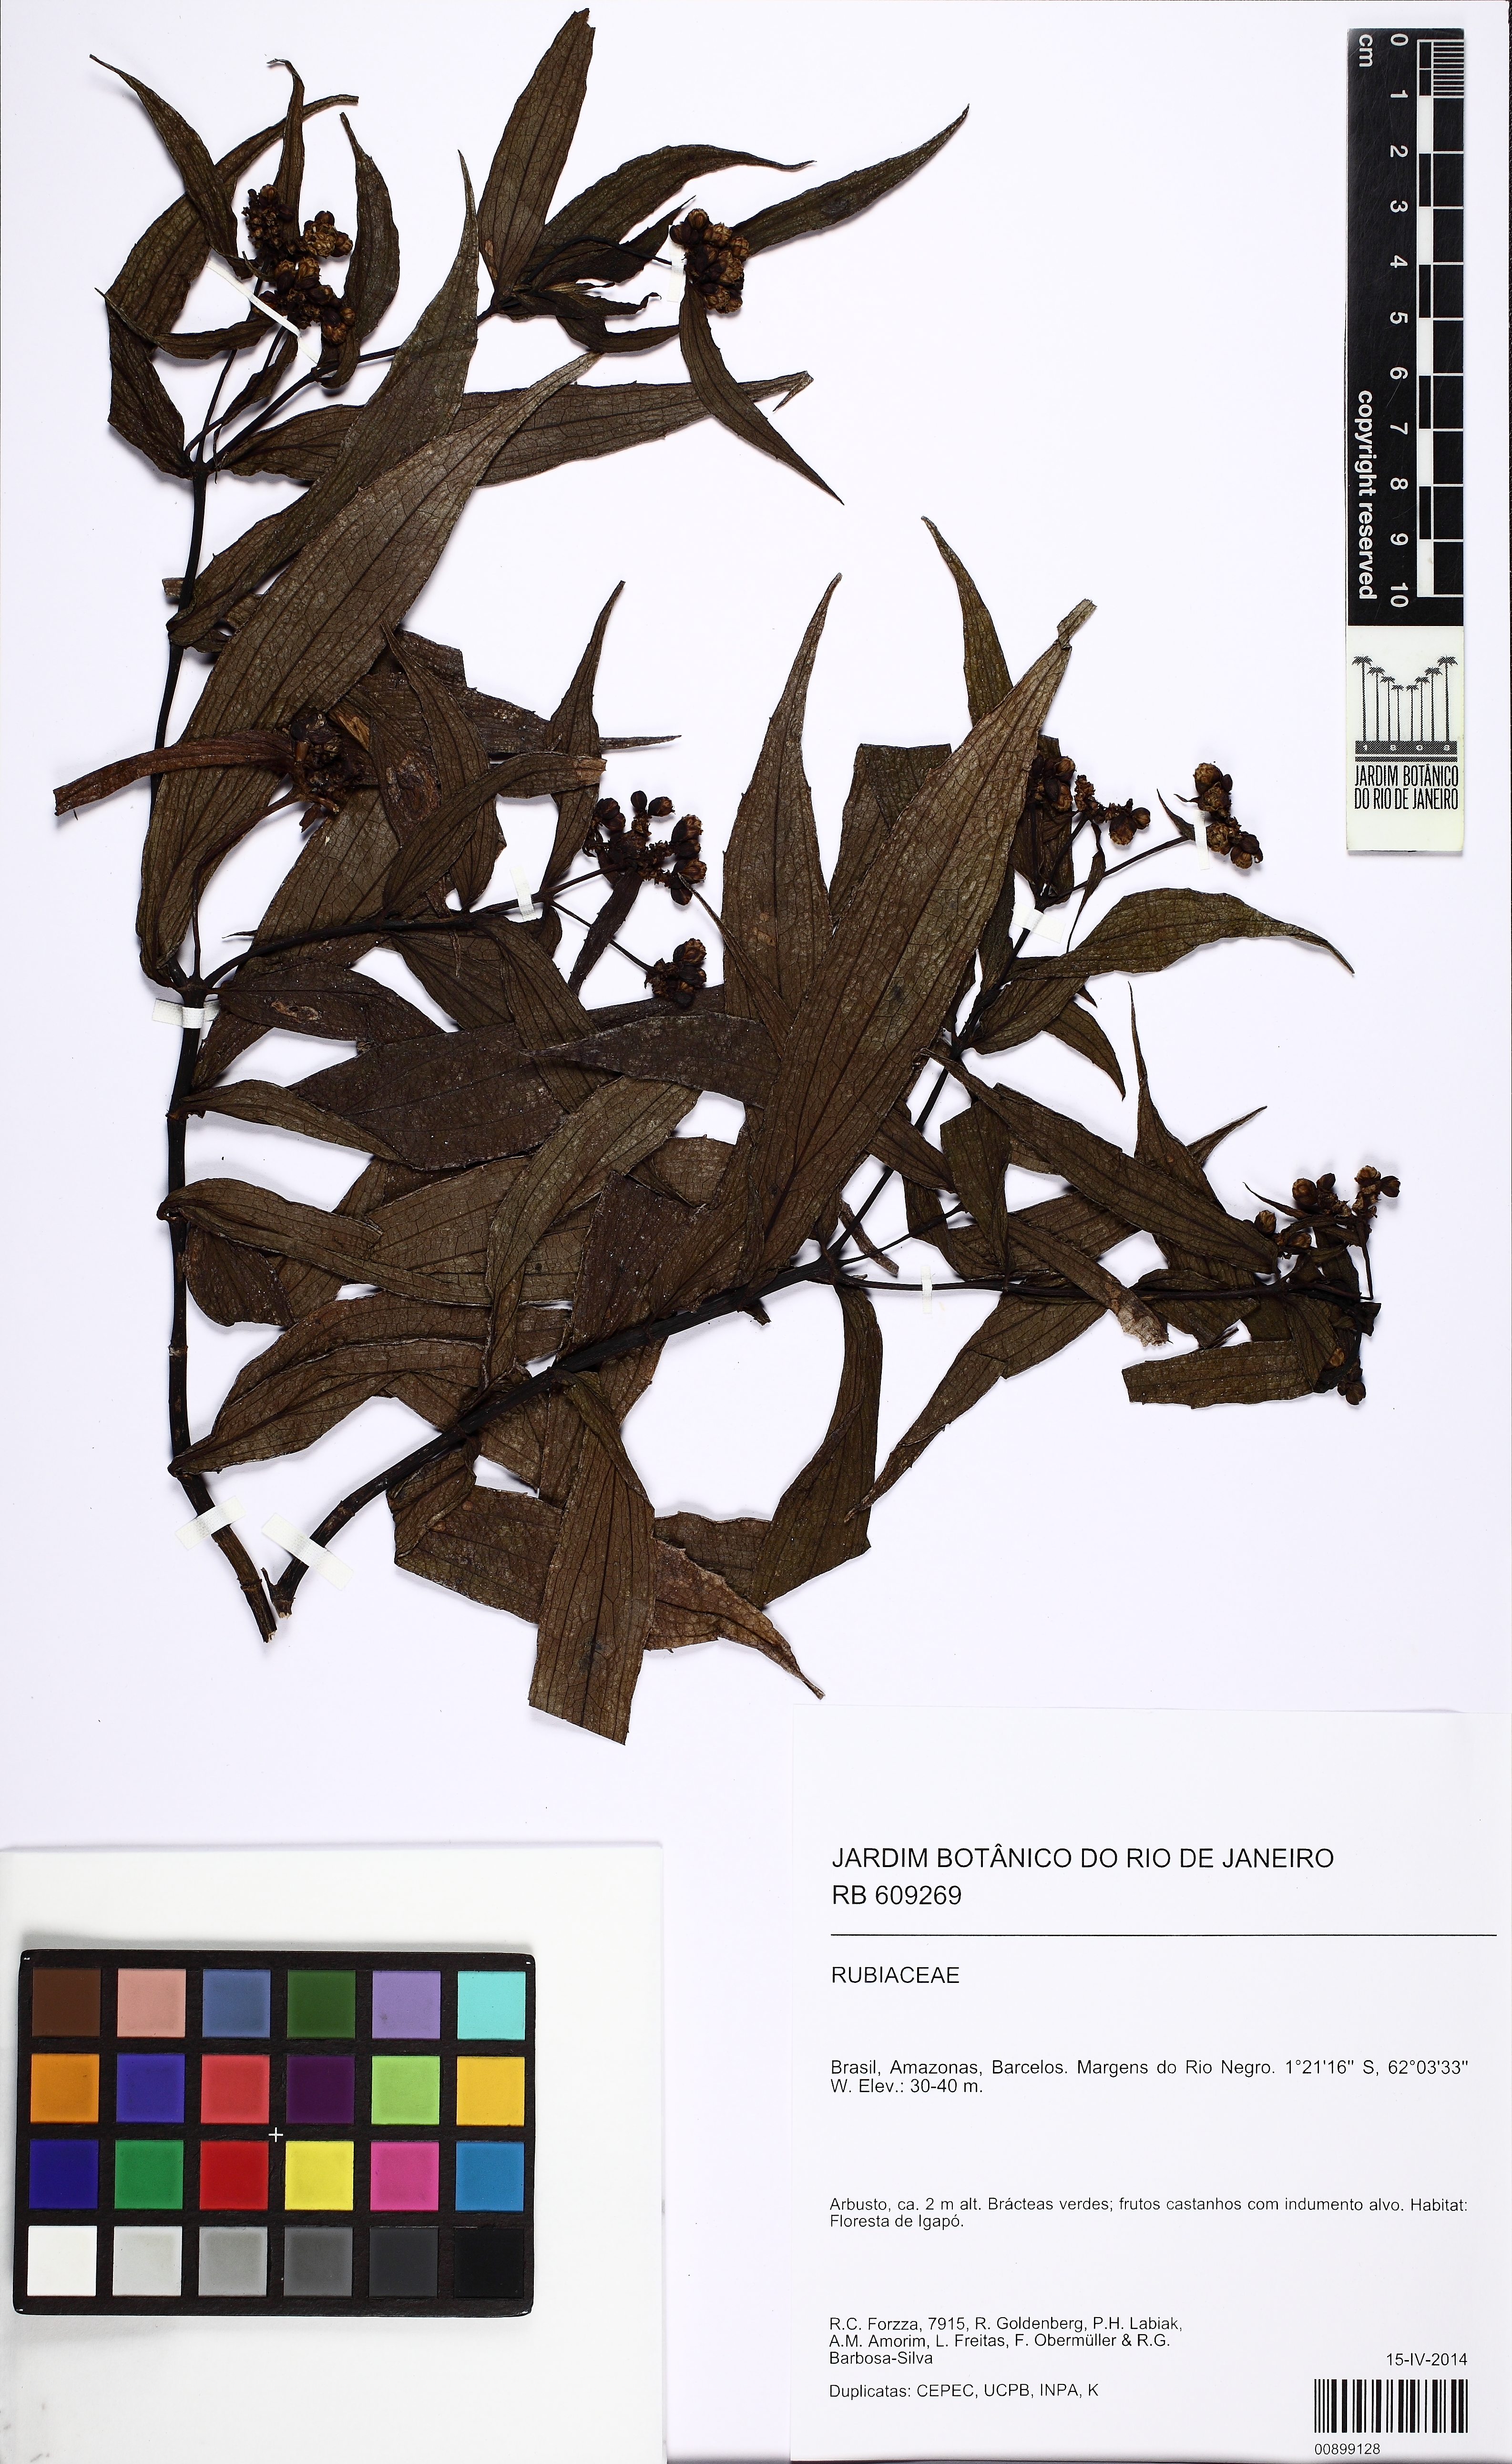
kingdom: Plantae
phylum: Tracheophyta
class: Magnoliopsida
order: Asterales
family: Asteraceae
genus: Ichthyothere
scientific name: Ichthyothere
